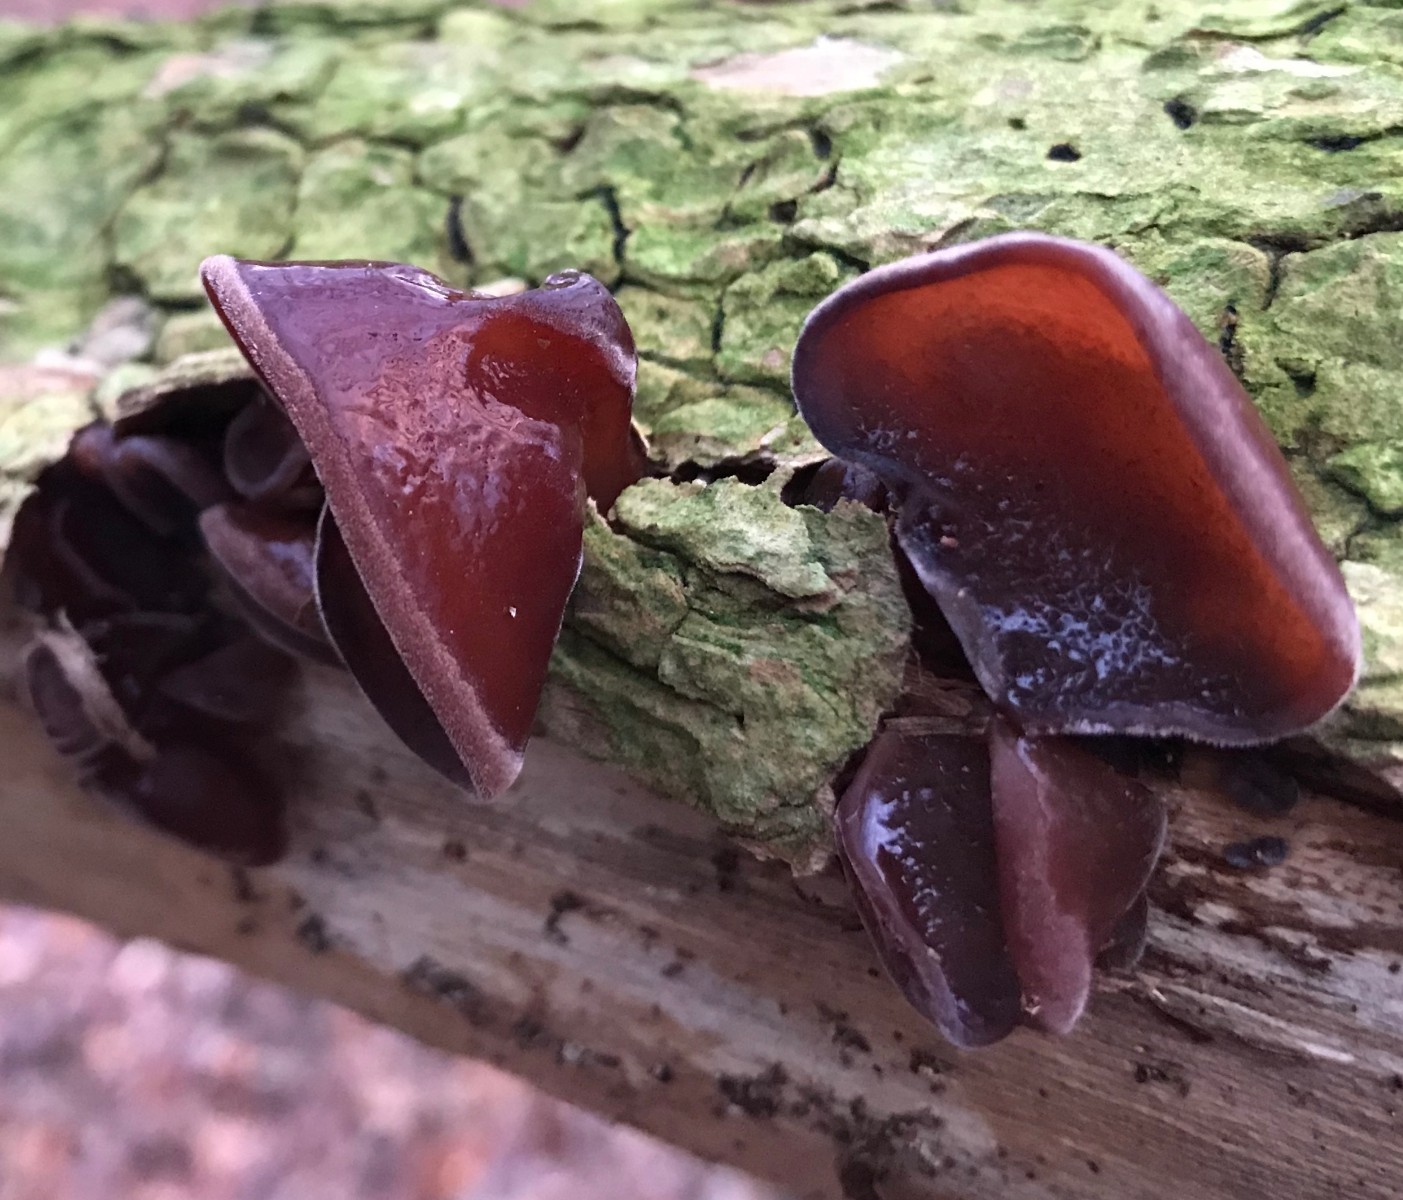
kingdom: Fungi
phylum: Basidiomycota
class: Agaricomycetes
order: Auriculariales
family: Auriculariaceae
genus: Auricularia
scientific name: Auricularia auricula-judae
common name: almindelig judasøre
